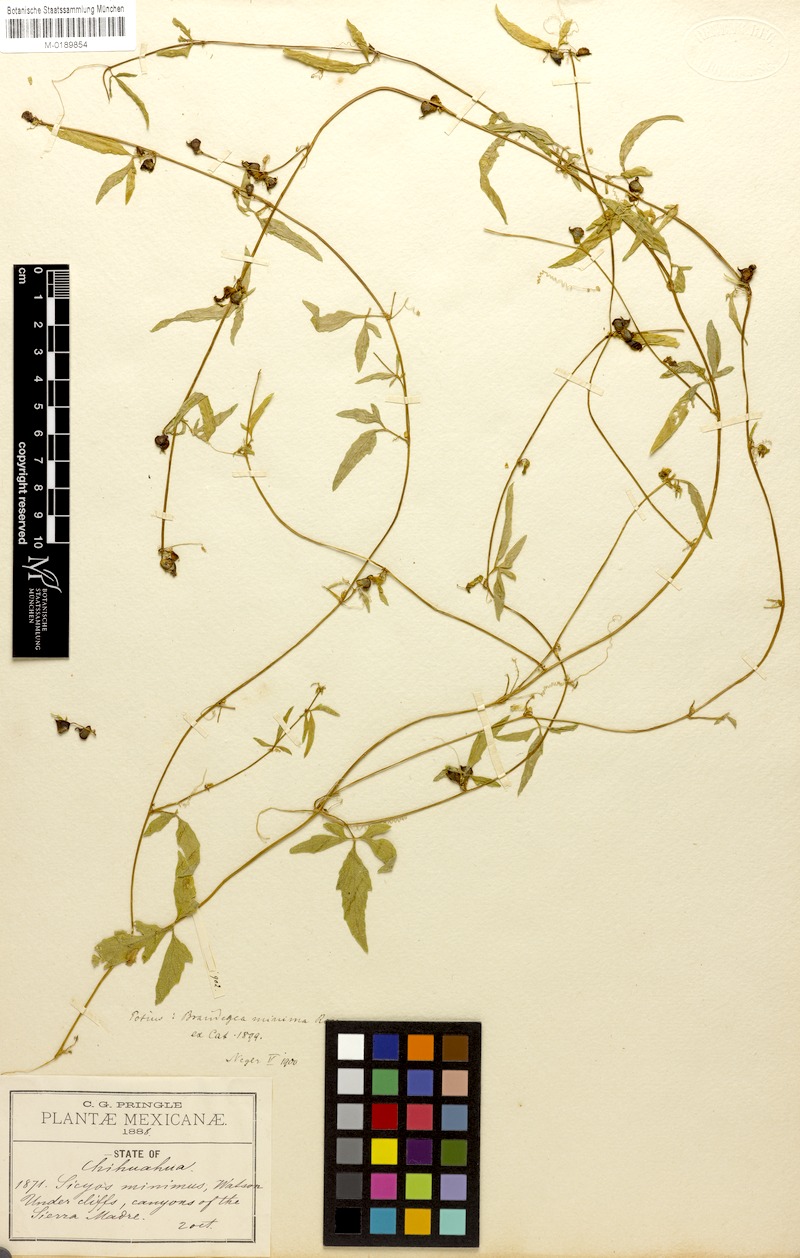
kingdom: Plantae
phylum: Tracheophyta
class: Magnoliopsida
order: Cucurbitales
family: Cucurbitaceae
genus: Echinopepon
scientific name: Echinopepon bigelovii
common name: Desert starvine
